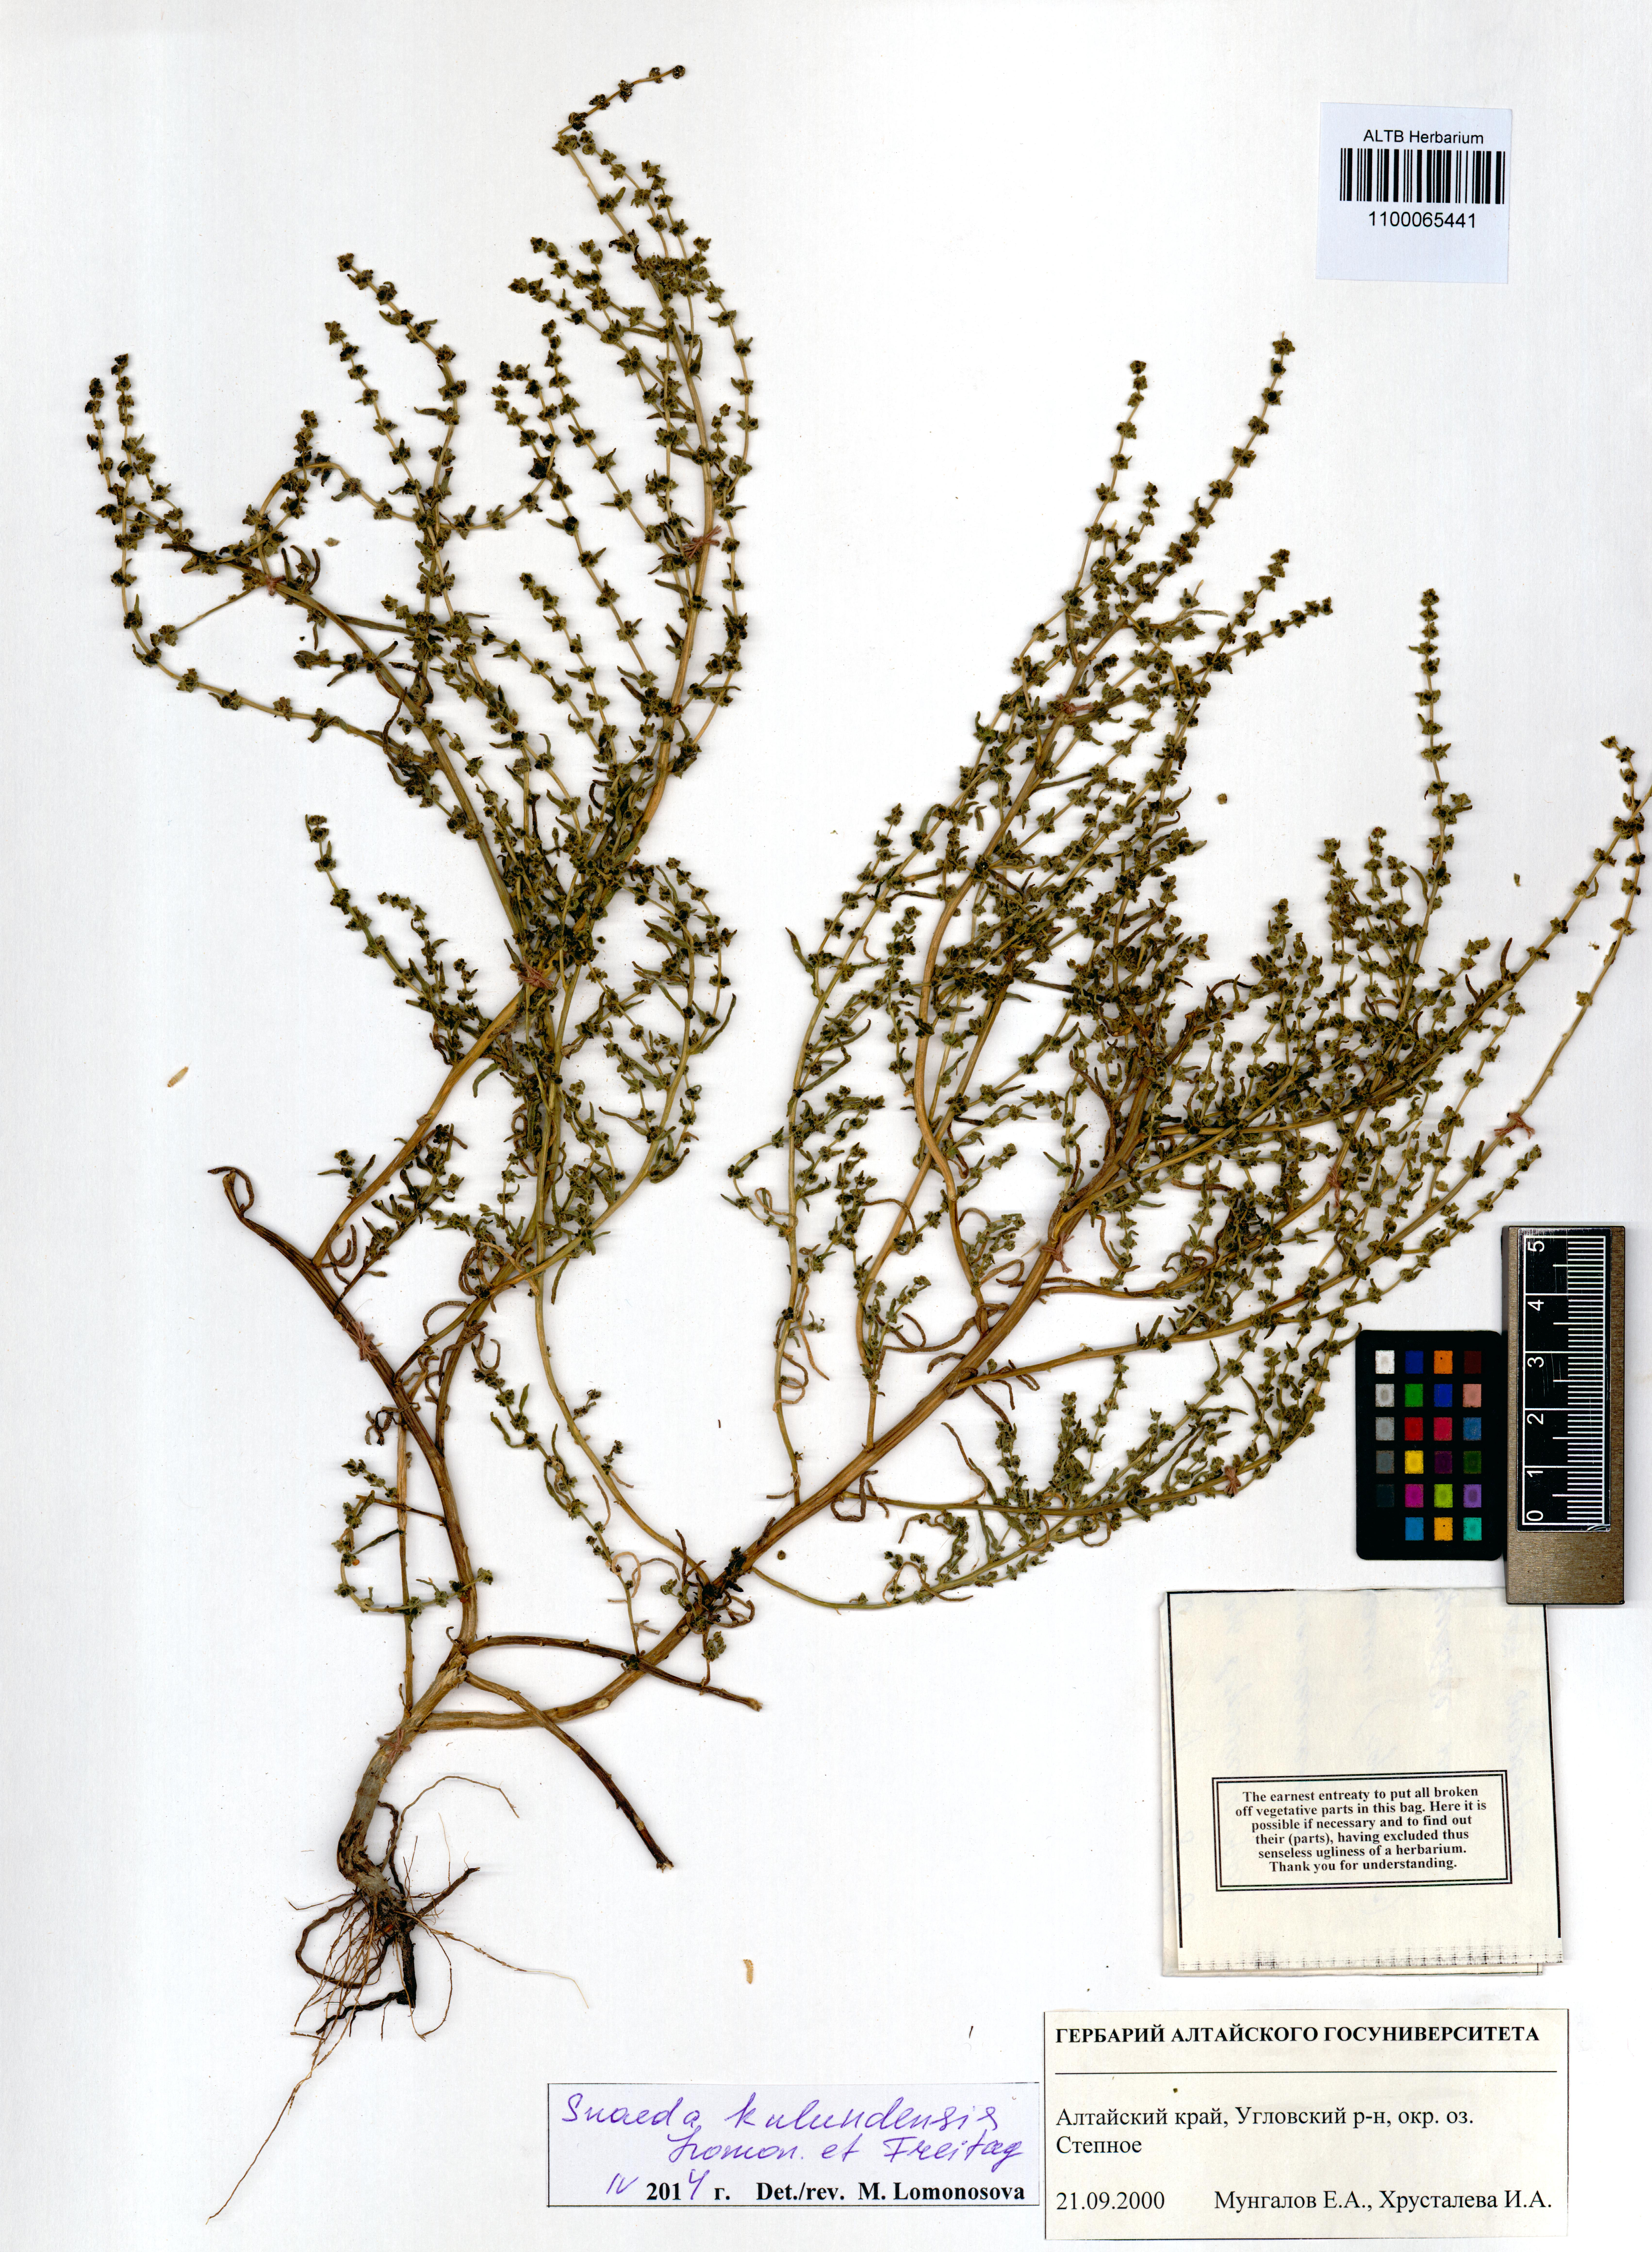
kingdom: Plantae
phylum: Tracheophyta
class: Magnoliopsida
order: Caryophyllales
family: Amaranthaceae
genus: Suaeda
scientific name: Suaeda kulundensis
